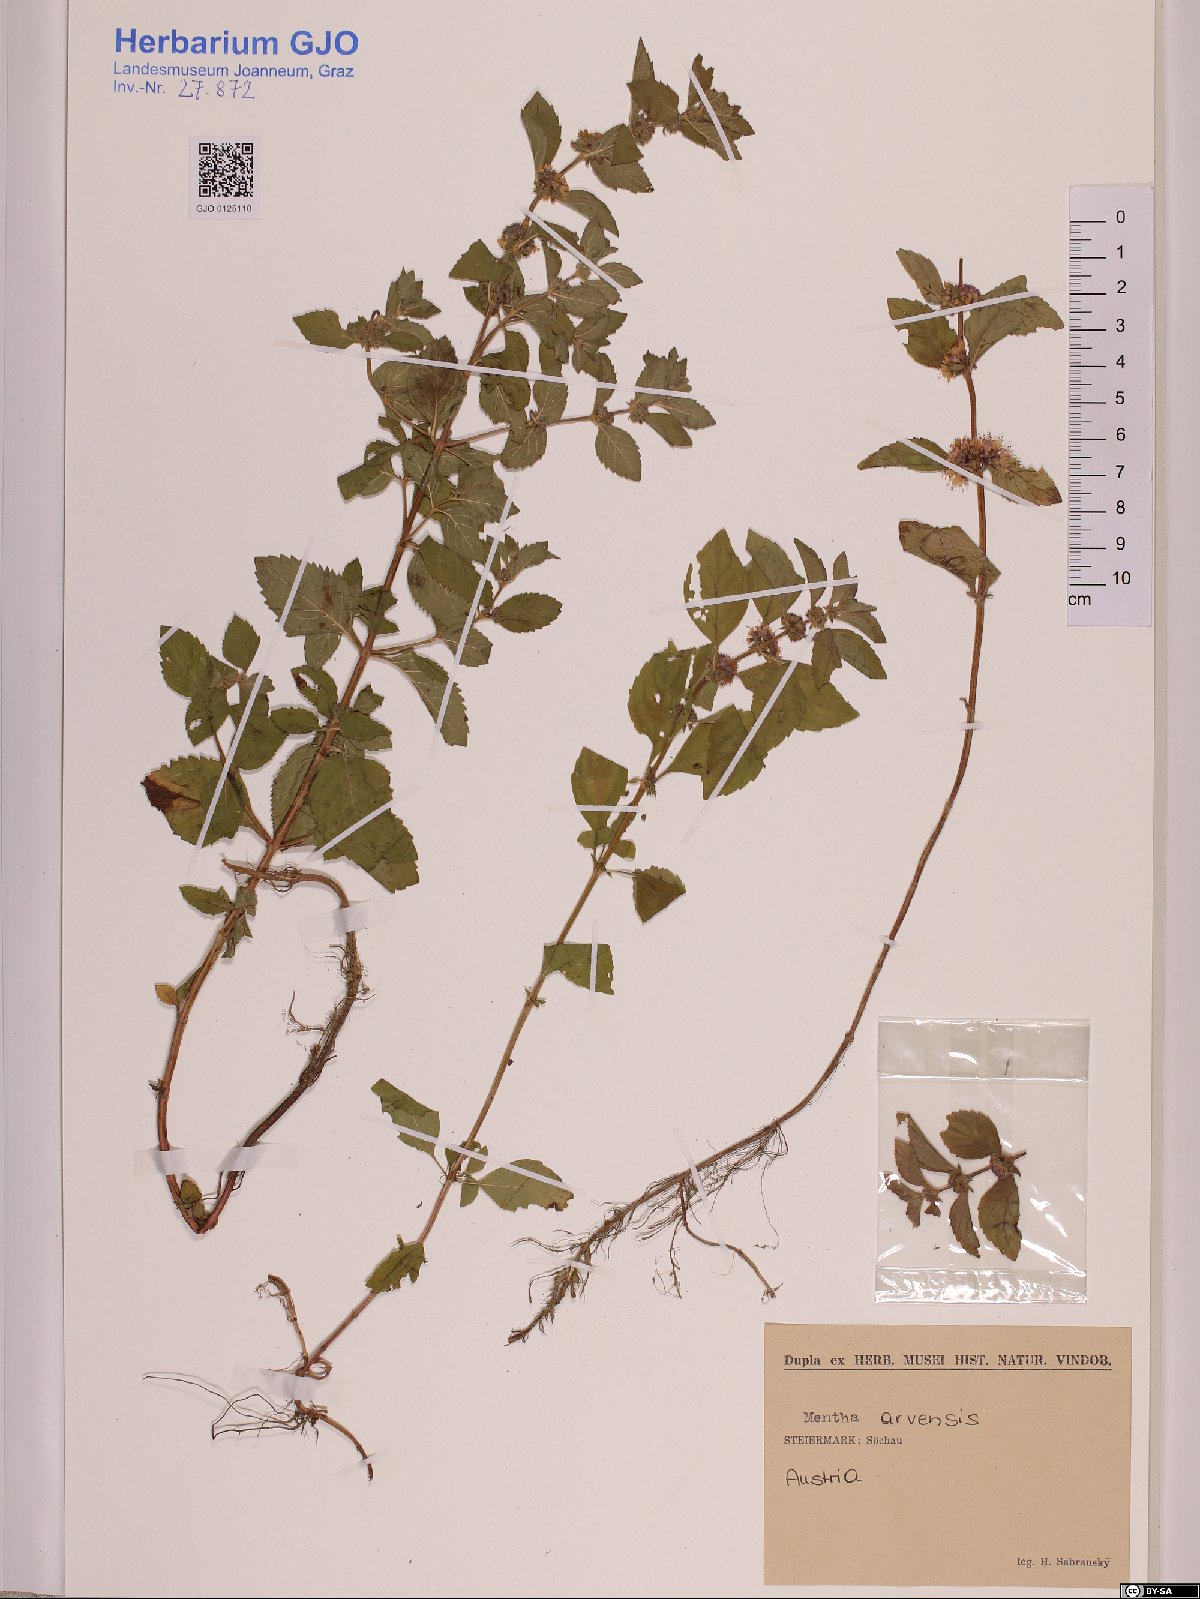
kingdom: Plantae
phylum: Tracheophyta
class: Magnoliopsida
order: Lamiales
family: Lamiaceae
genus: Mentha
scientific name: Mentha arvensis
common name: Corn mint
